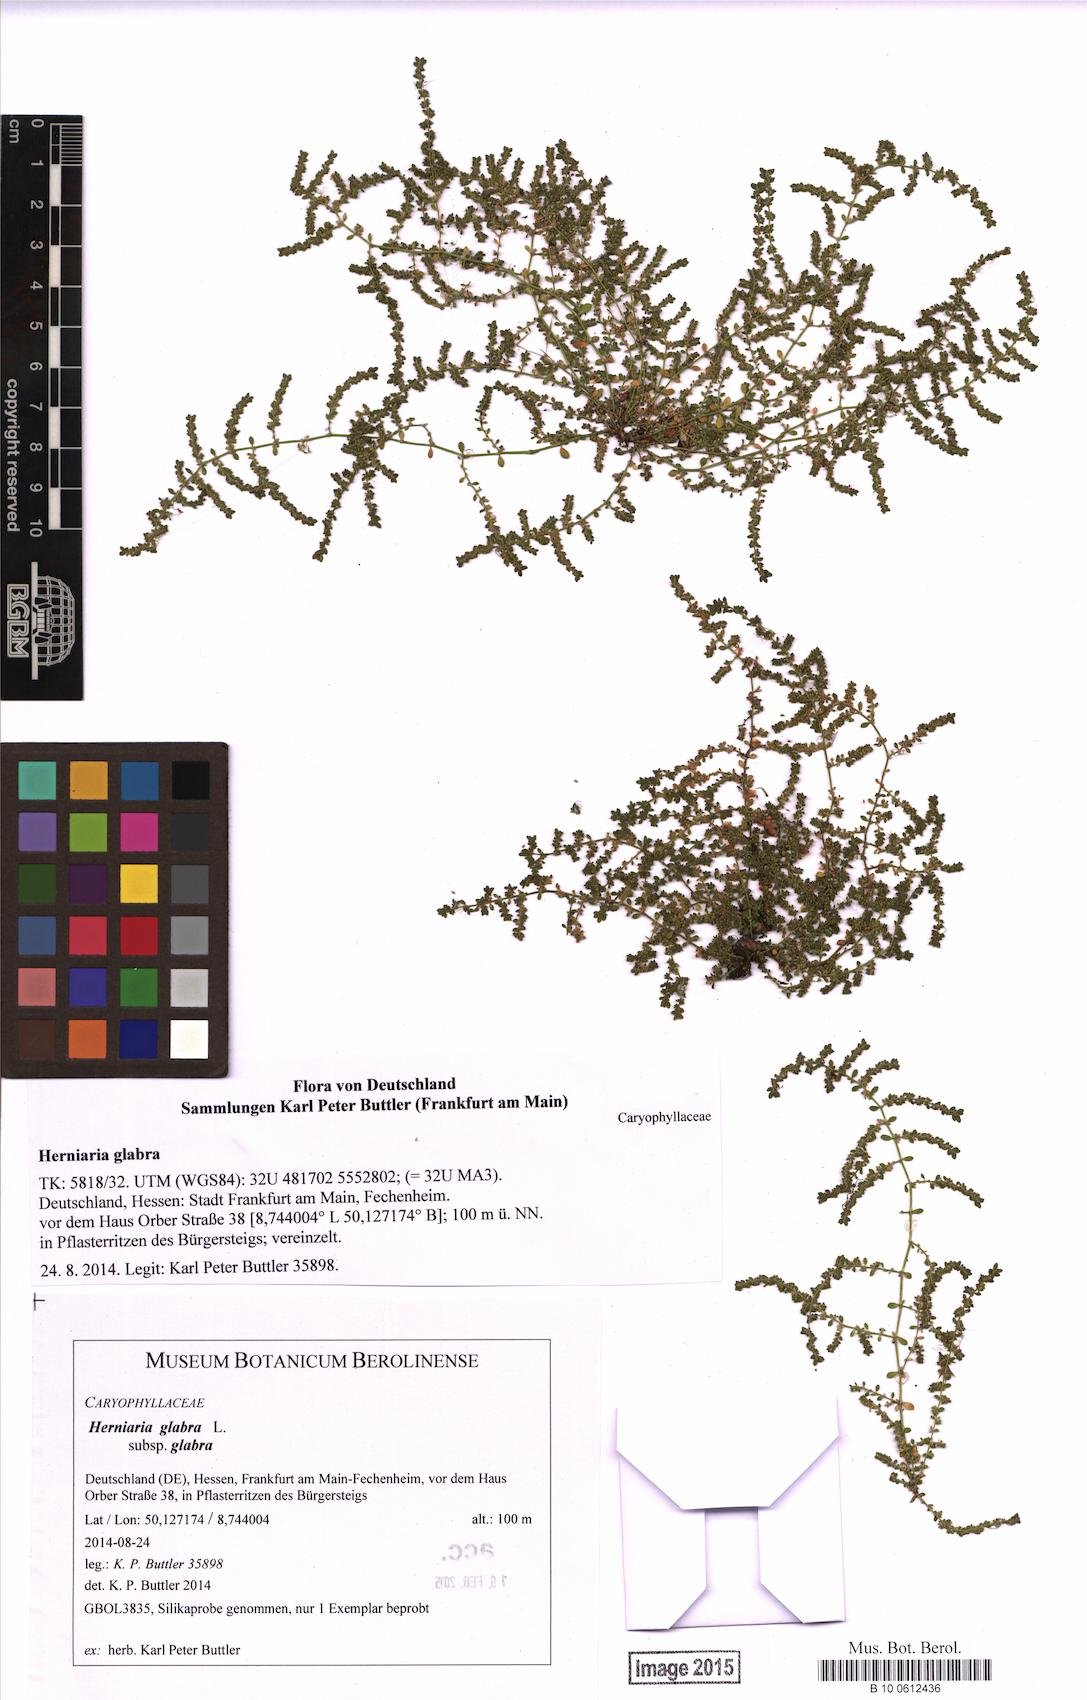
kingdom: Plantae
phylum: Tracheophyta
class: Magnoliopsida
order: Caryophyllales
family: Caryophyllaceae
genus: Herniaria
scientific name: Herniaria glabra
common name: Smooth rupturewort
